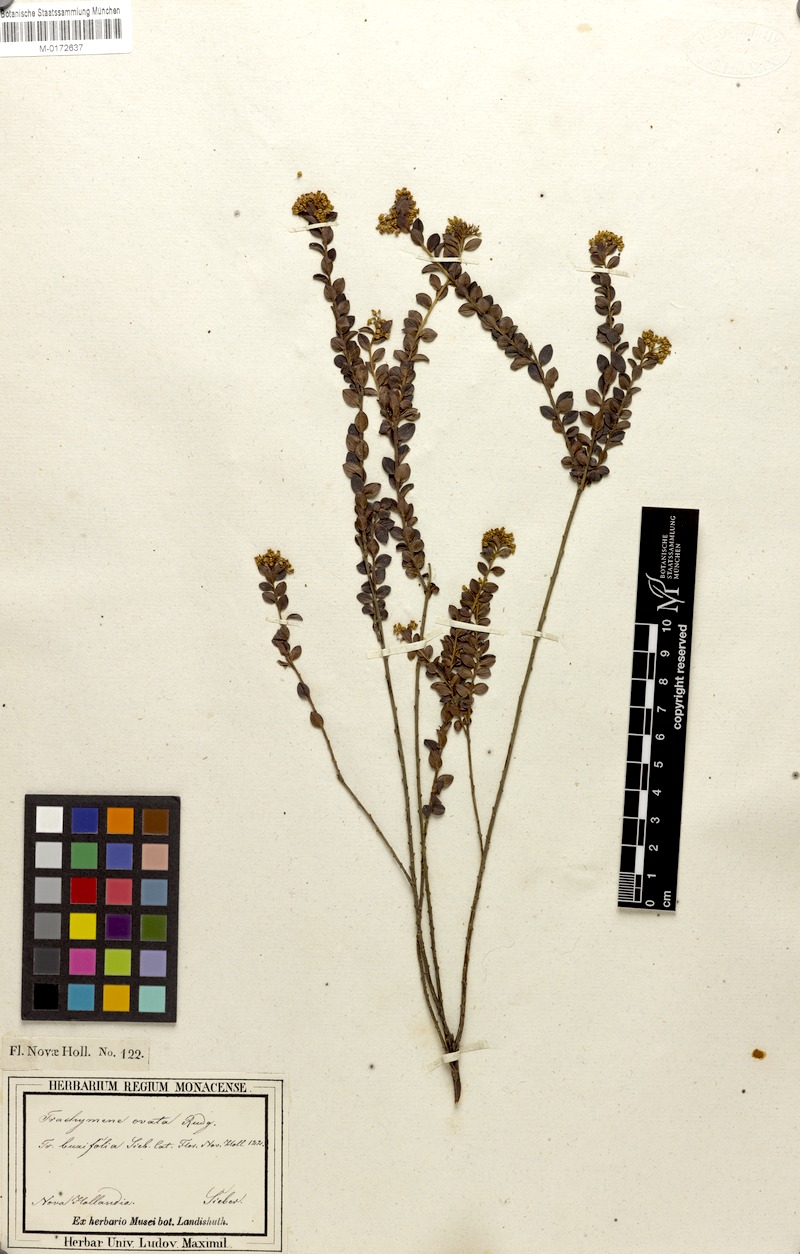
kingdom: Plantae
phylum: Tracheophyta
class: Magnoliopsida
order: Apiales
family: Araliaceae
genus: Trachymene
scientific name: Trachymene ovata
